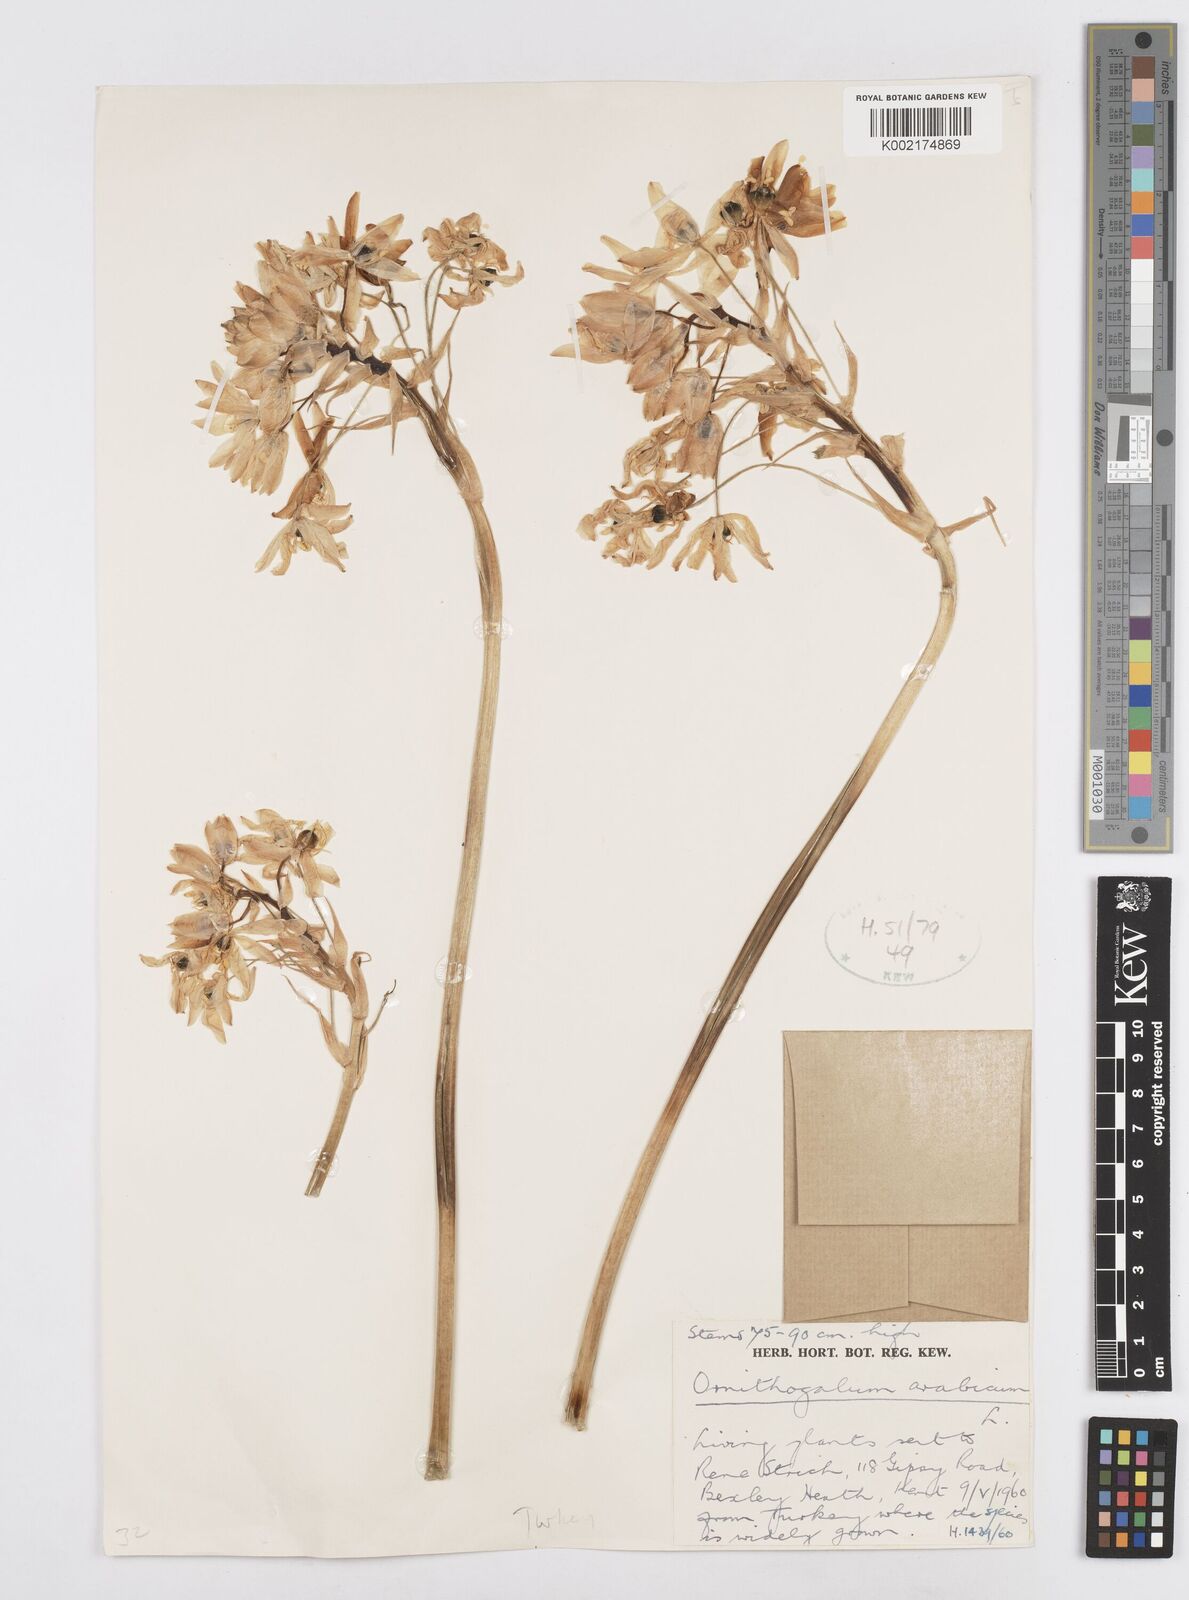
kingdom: Plantae
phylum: Tracheophyta
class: Liliopsida
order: Asparagales
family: Asparagaceae
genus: Ornithogalum
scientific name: Ornithogalum arabicum
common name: Arabian starflower
